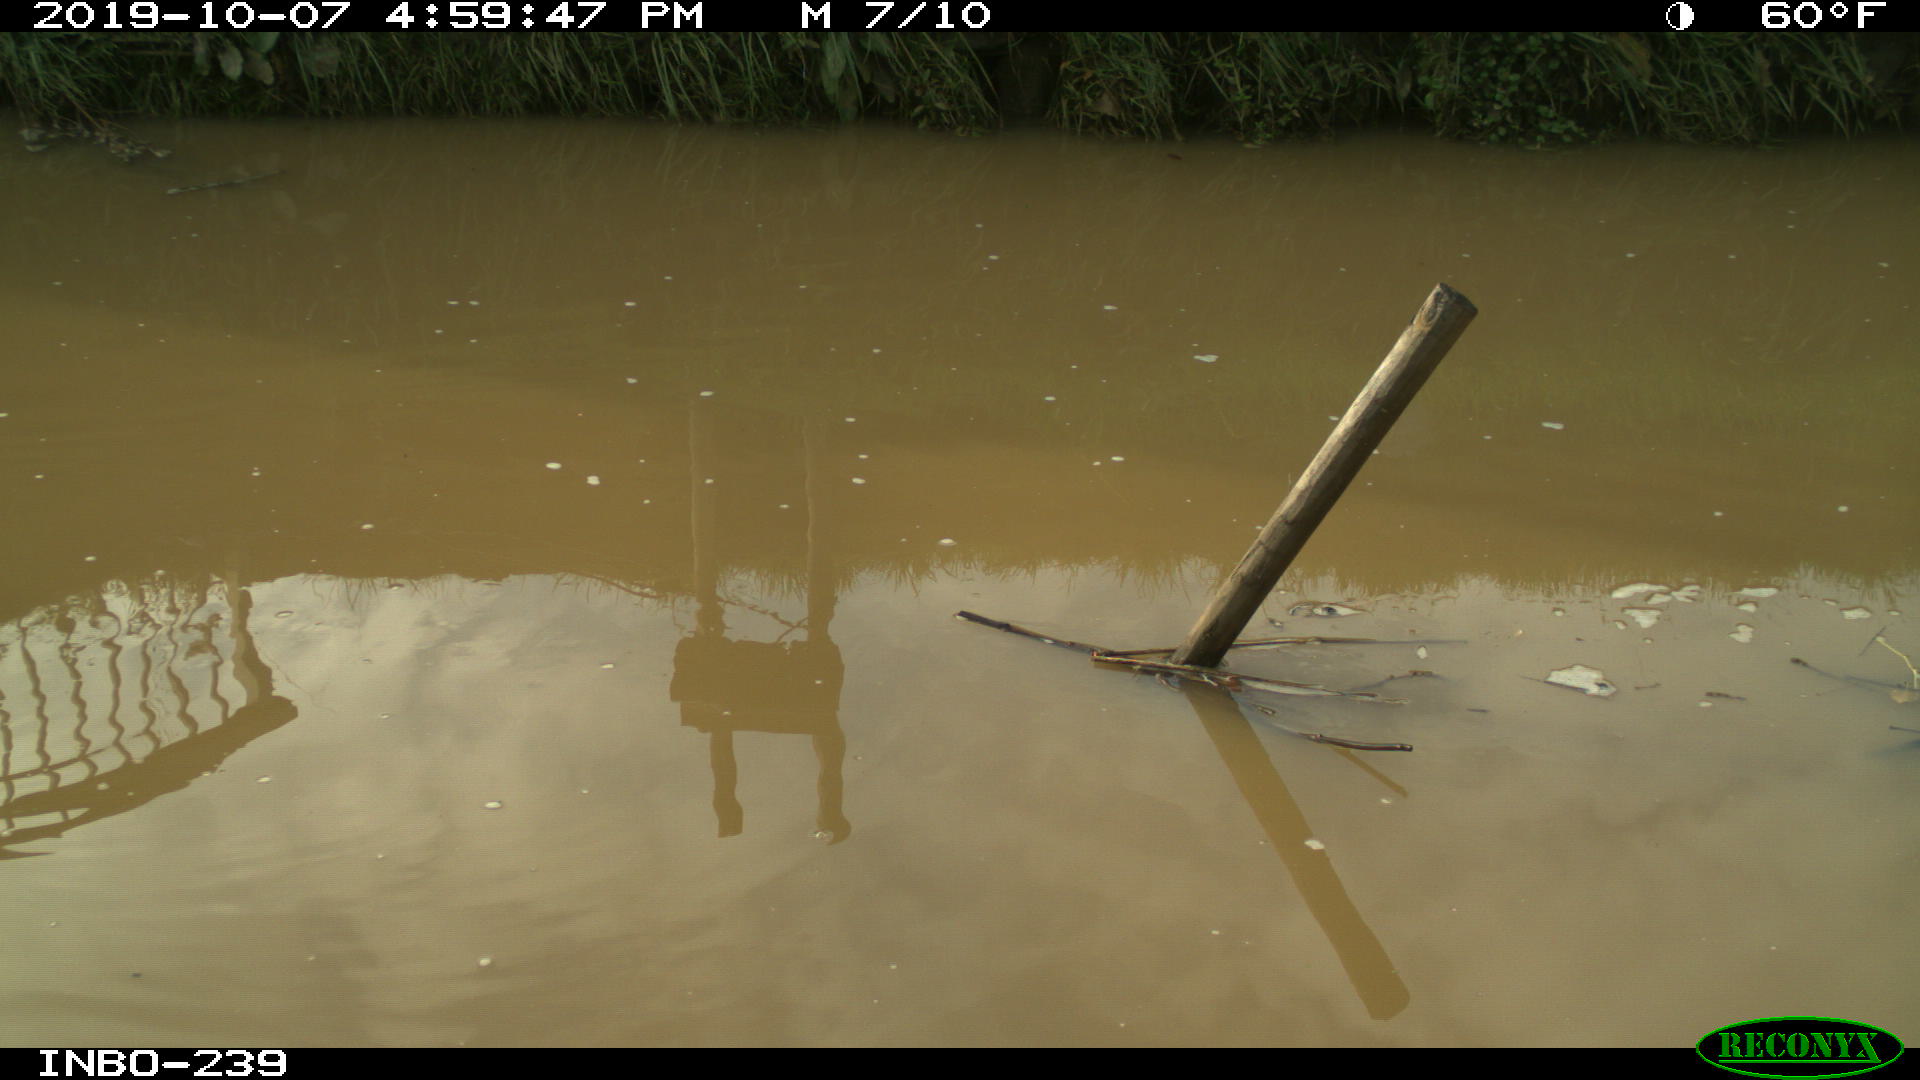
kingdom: Animalia
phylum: Chordata
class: Aves
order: Gruiformes
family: Rallidae
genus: Gallinula
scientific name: Gallinula chloropus
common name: Common moorhen
